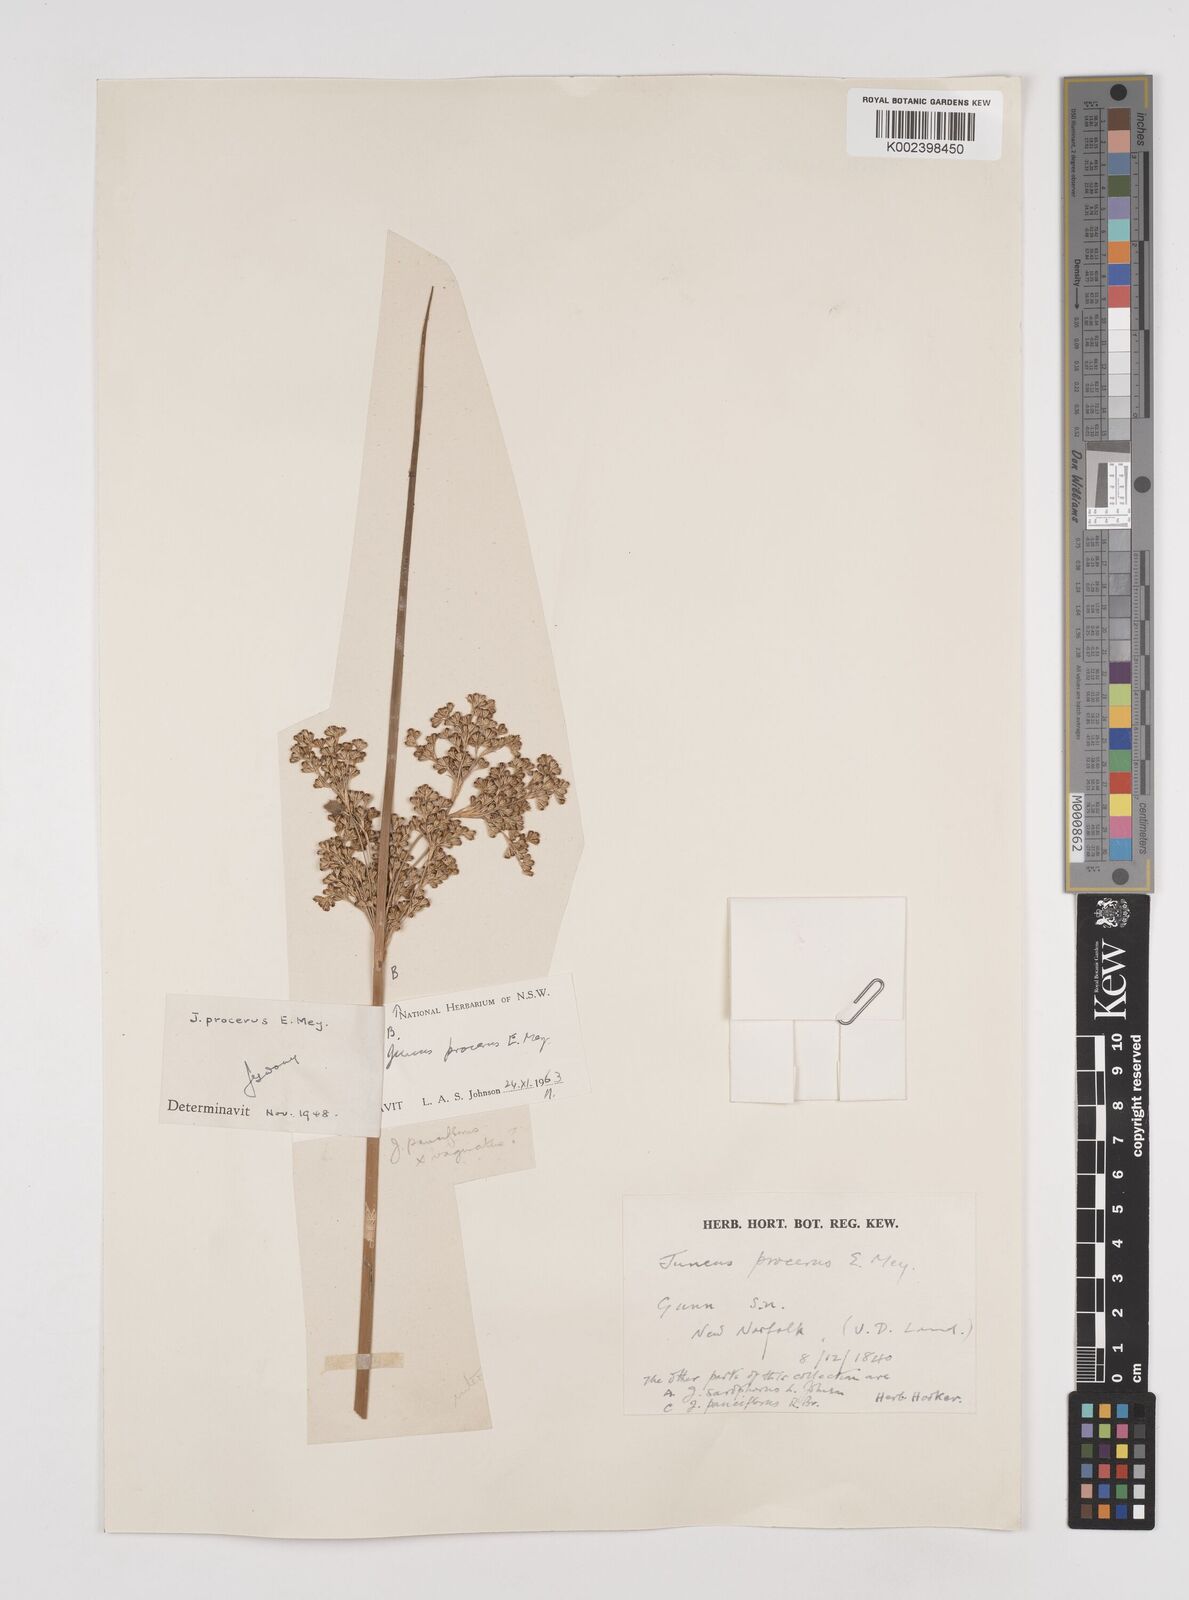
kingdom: Plantae
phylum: Tracheophyta
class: Liliopsida
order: Poales
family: Juncaceae
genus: Juncus
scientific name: Juncus procerus
